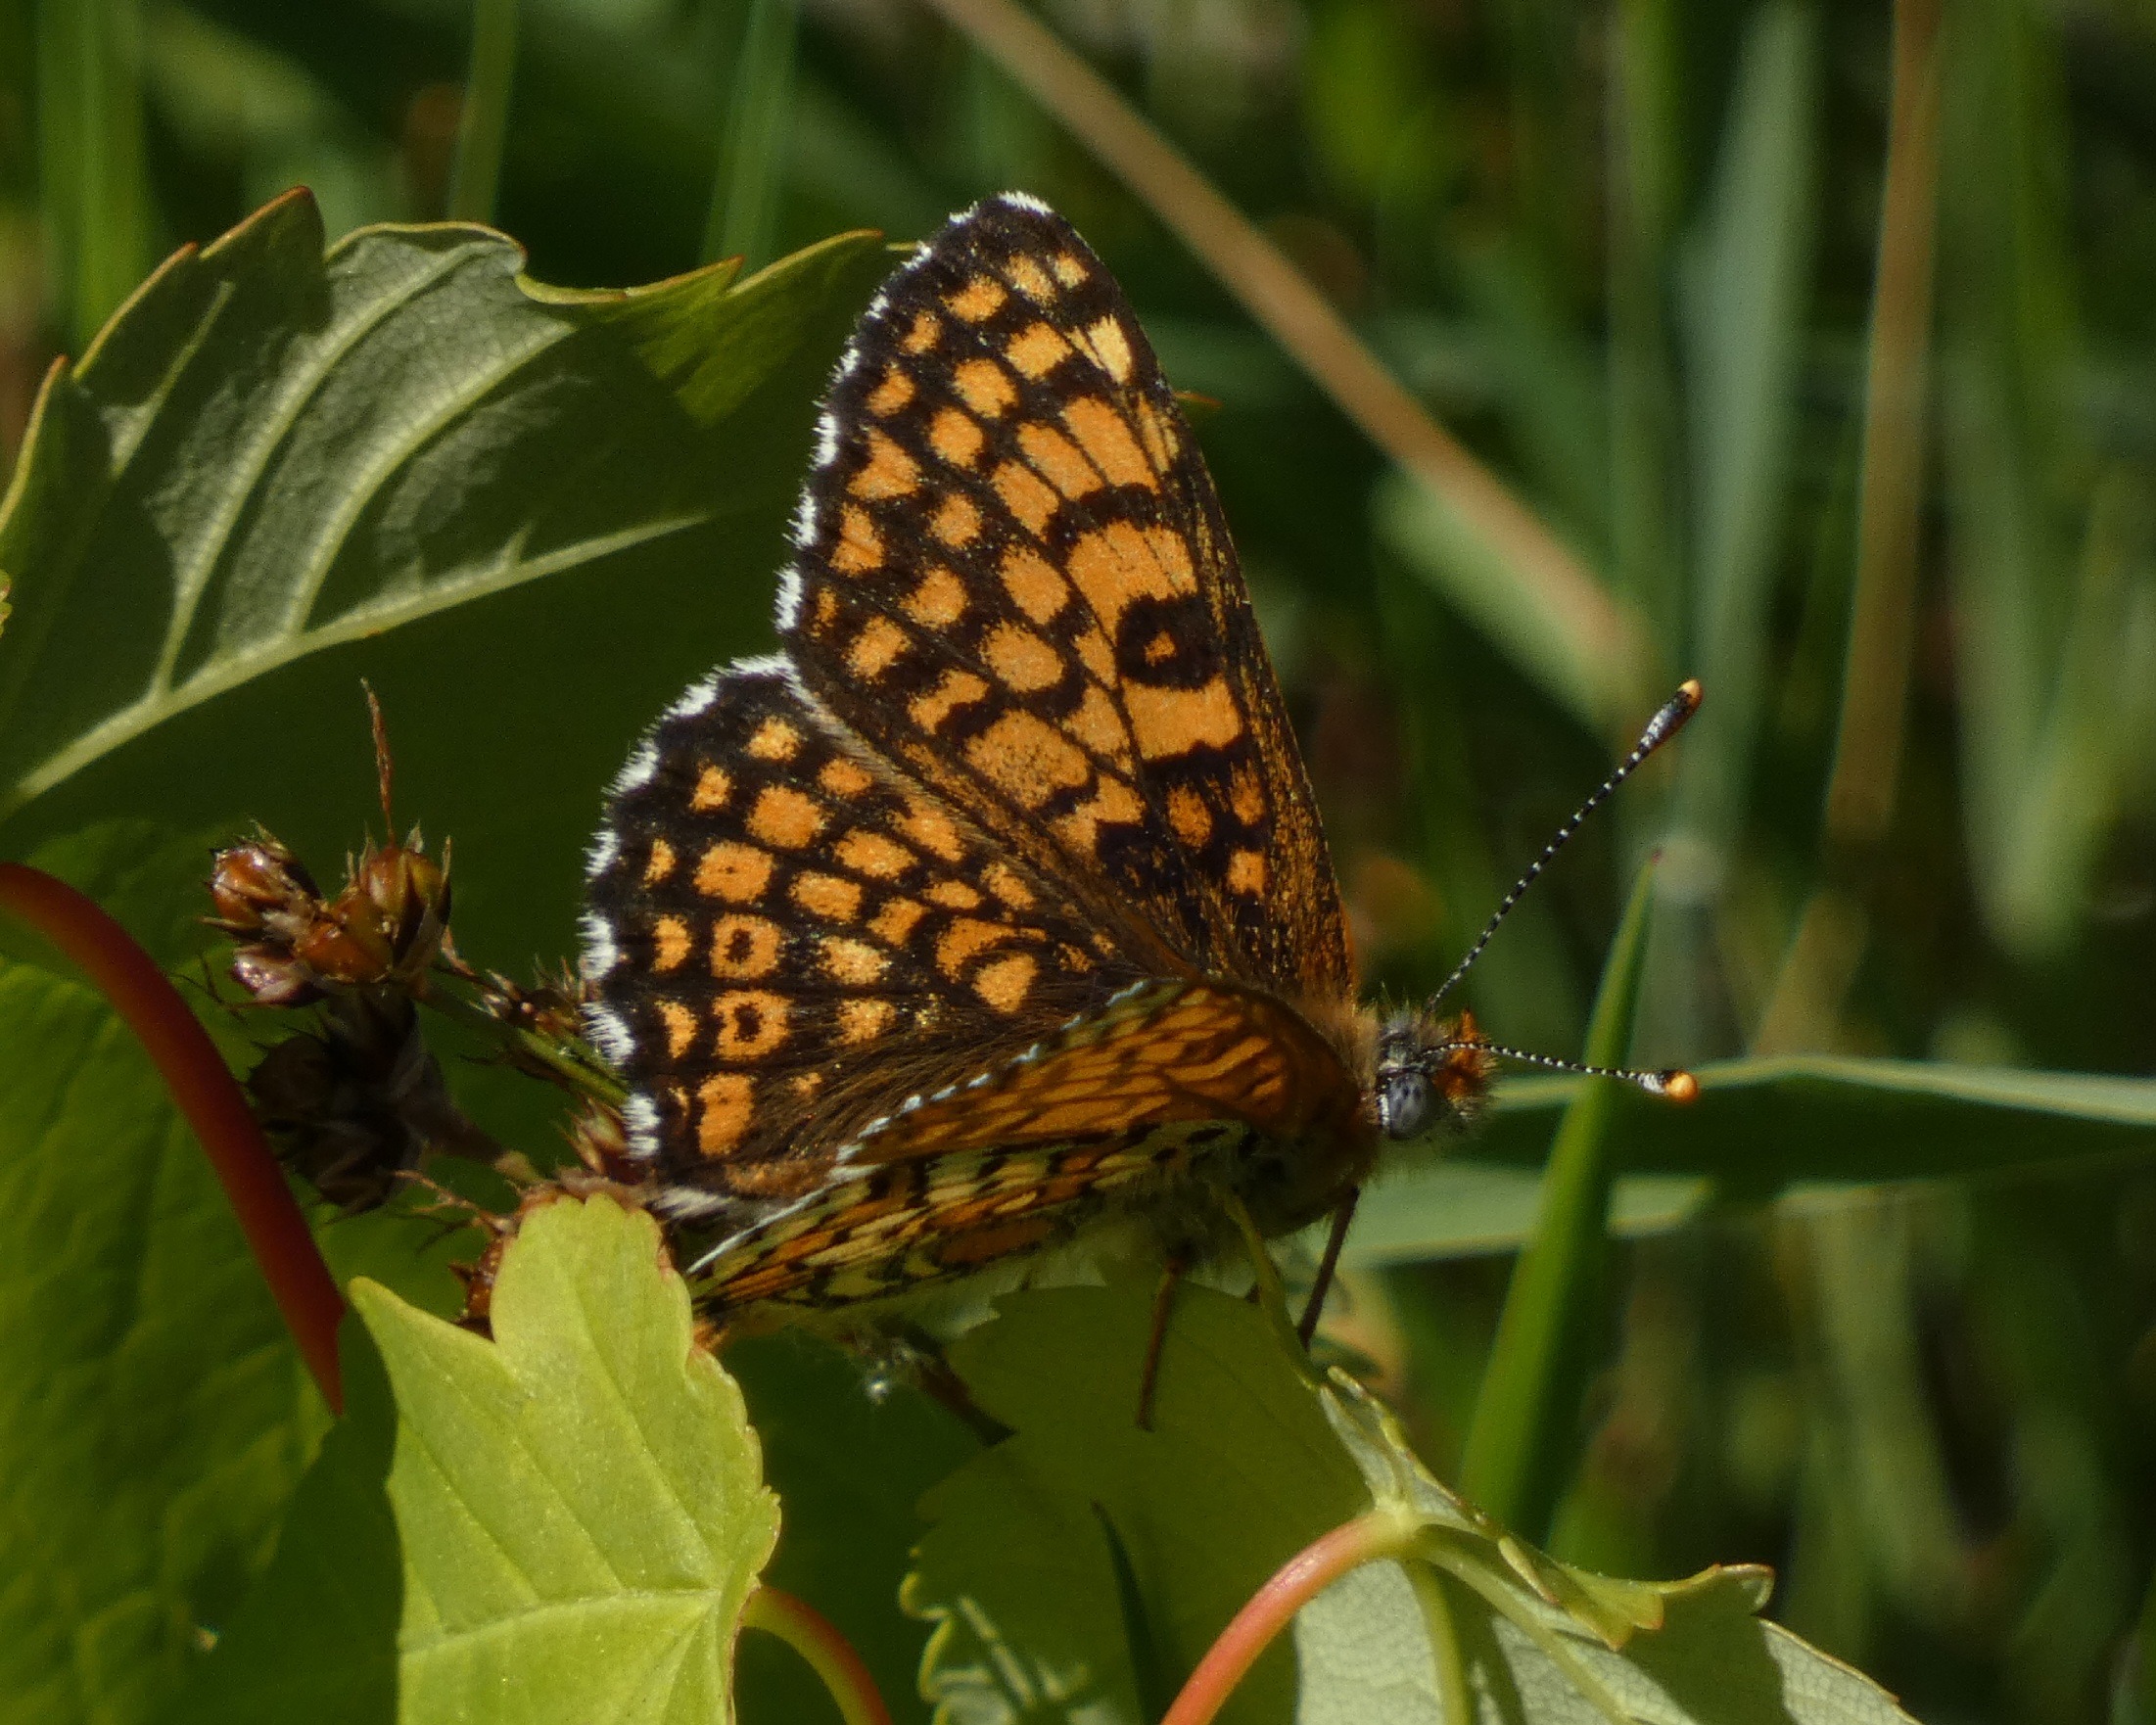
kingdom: Animalia
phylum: Arthropoda
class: Insecta
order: Lepidoptera
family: Nymphalidae
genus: Melitaea
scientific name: Melitaea cinxia
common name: Okkergul pletvinge
